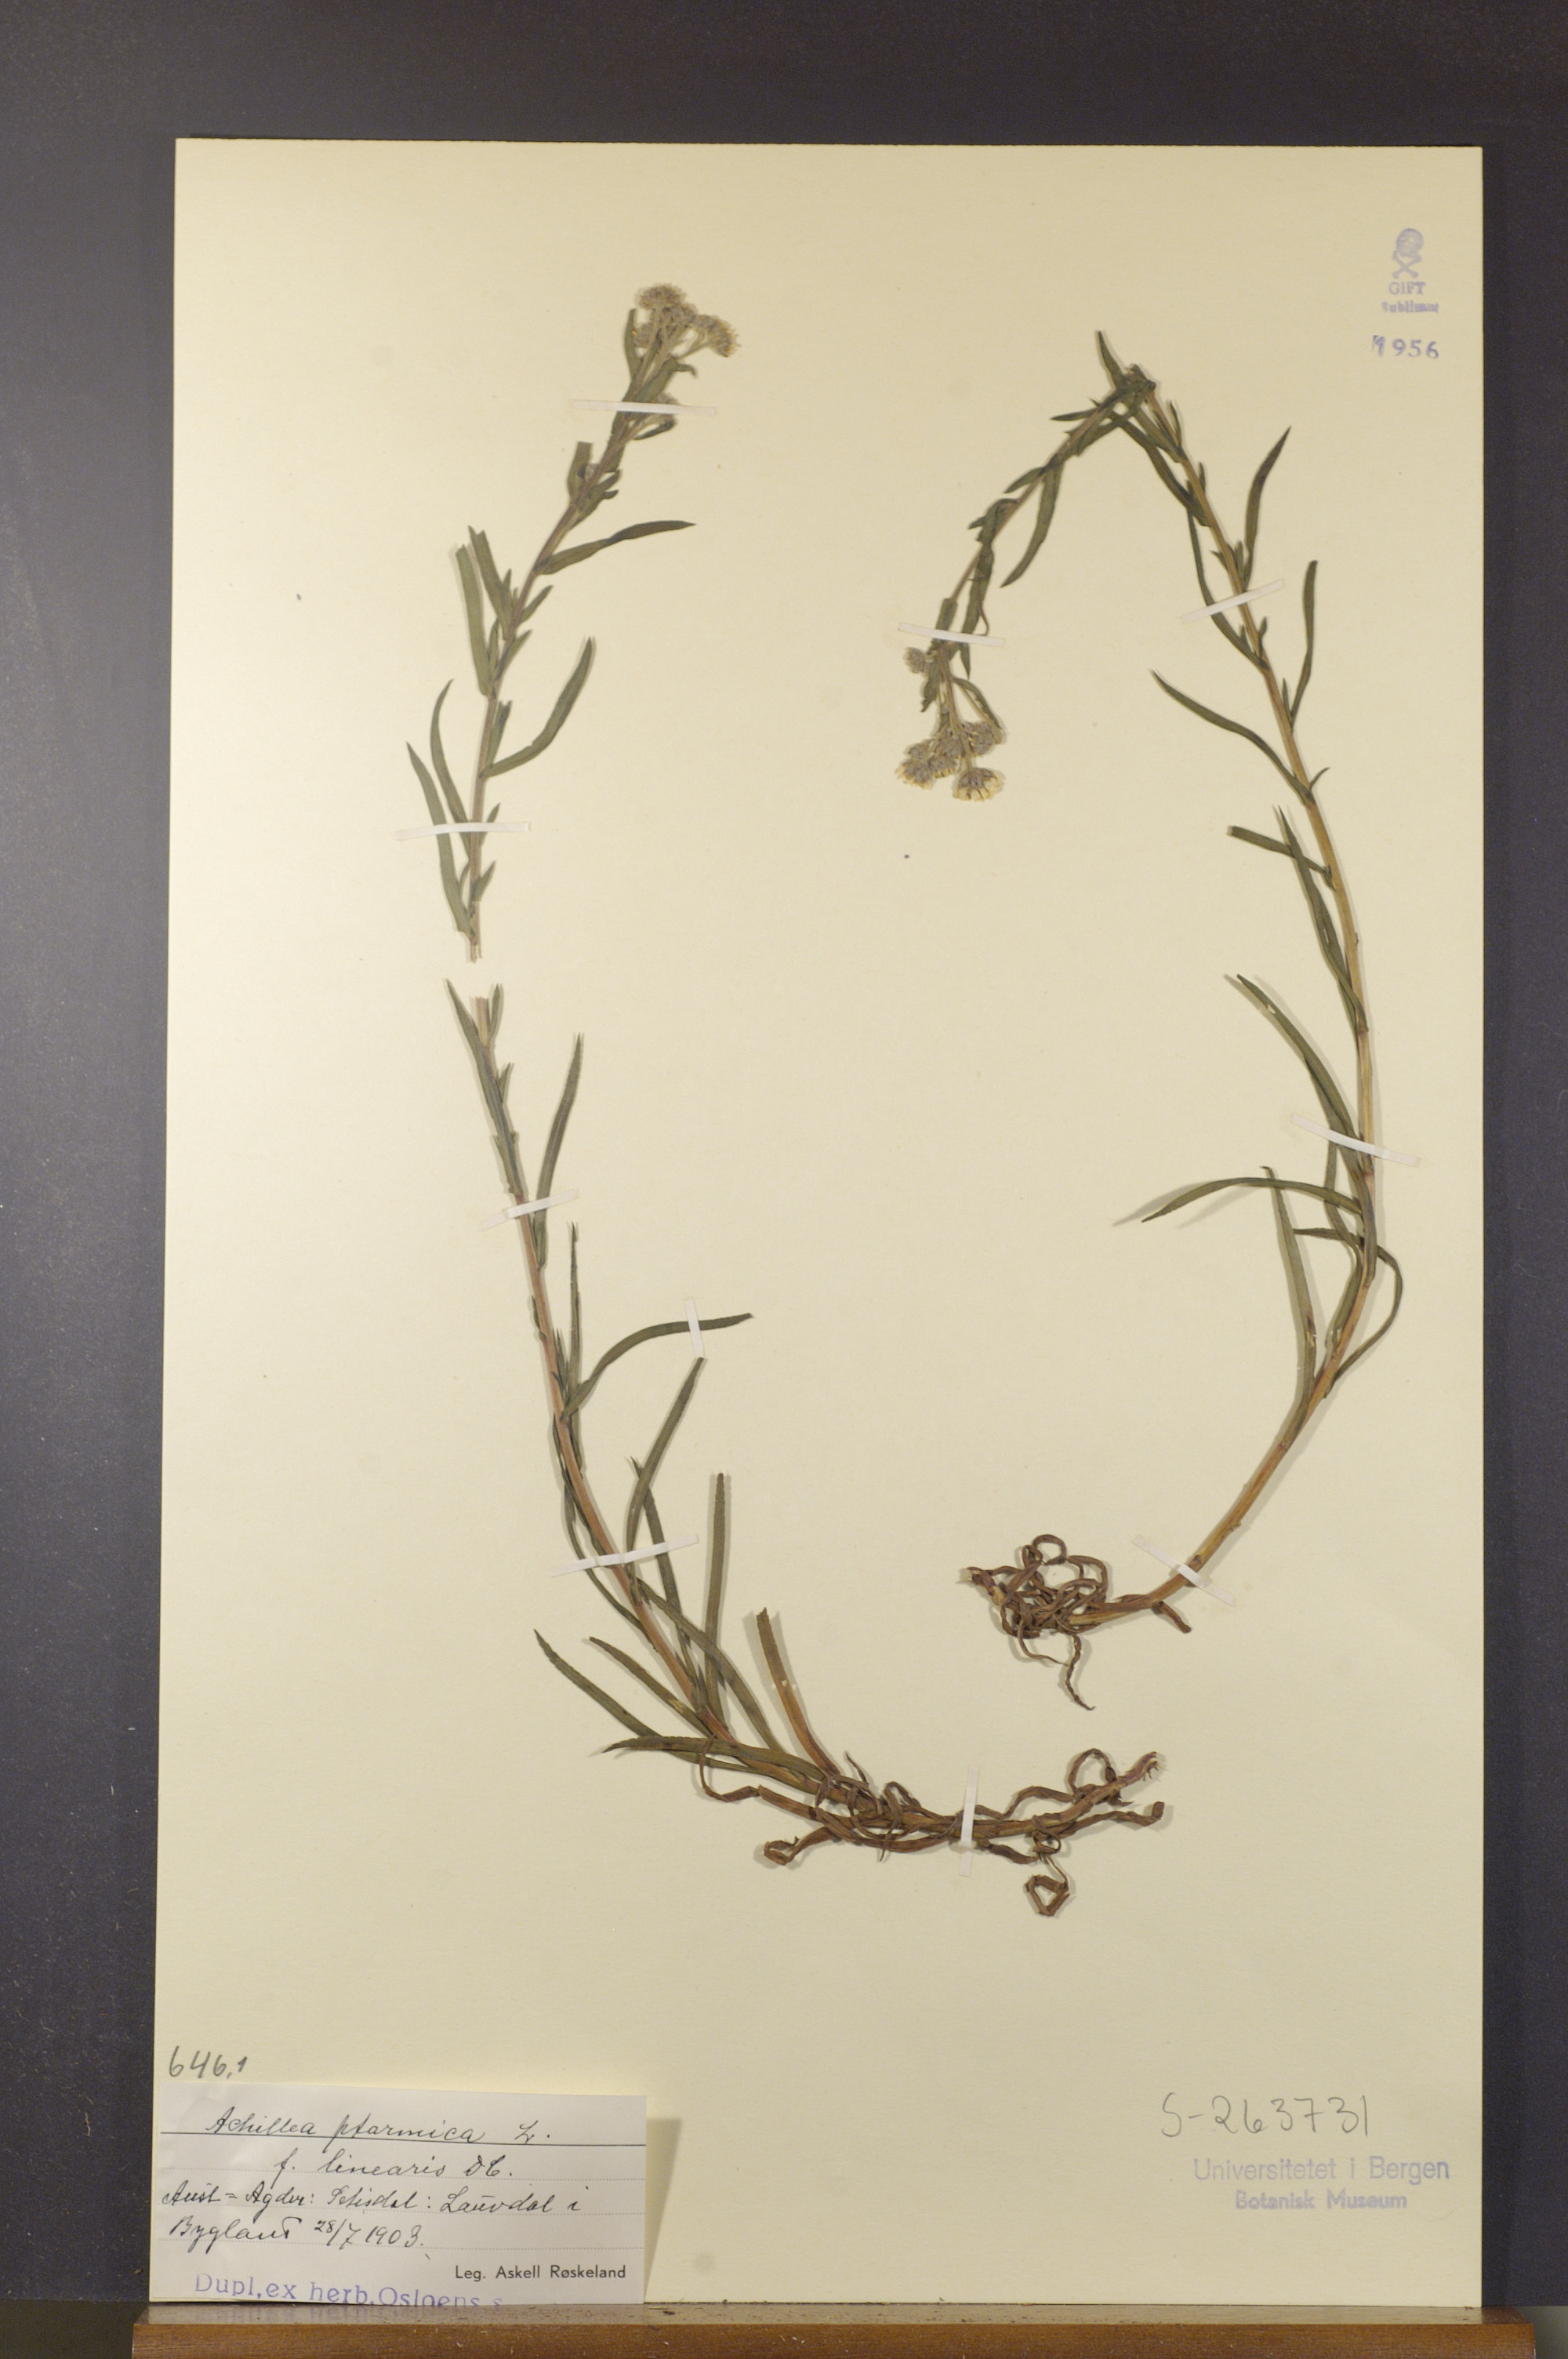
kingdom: Plantae
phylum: Tracheophyta
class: Magnoliopsida
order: Asterales
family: Asteraceae
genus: Achillea
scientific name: Achillea ptarmica
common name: Sneezeweed
